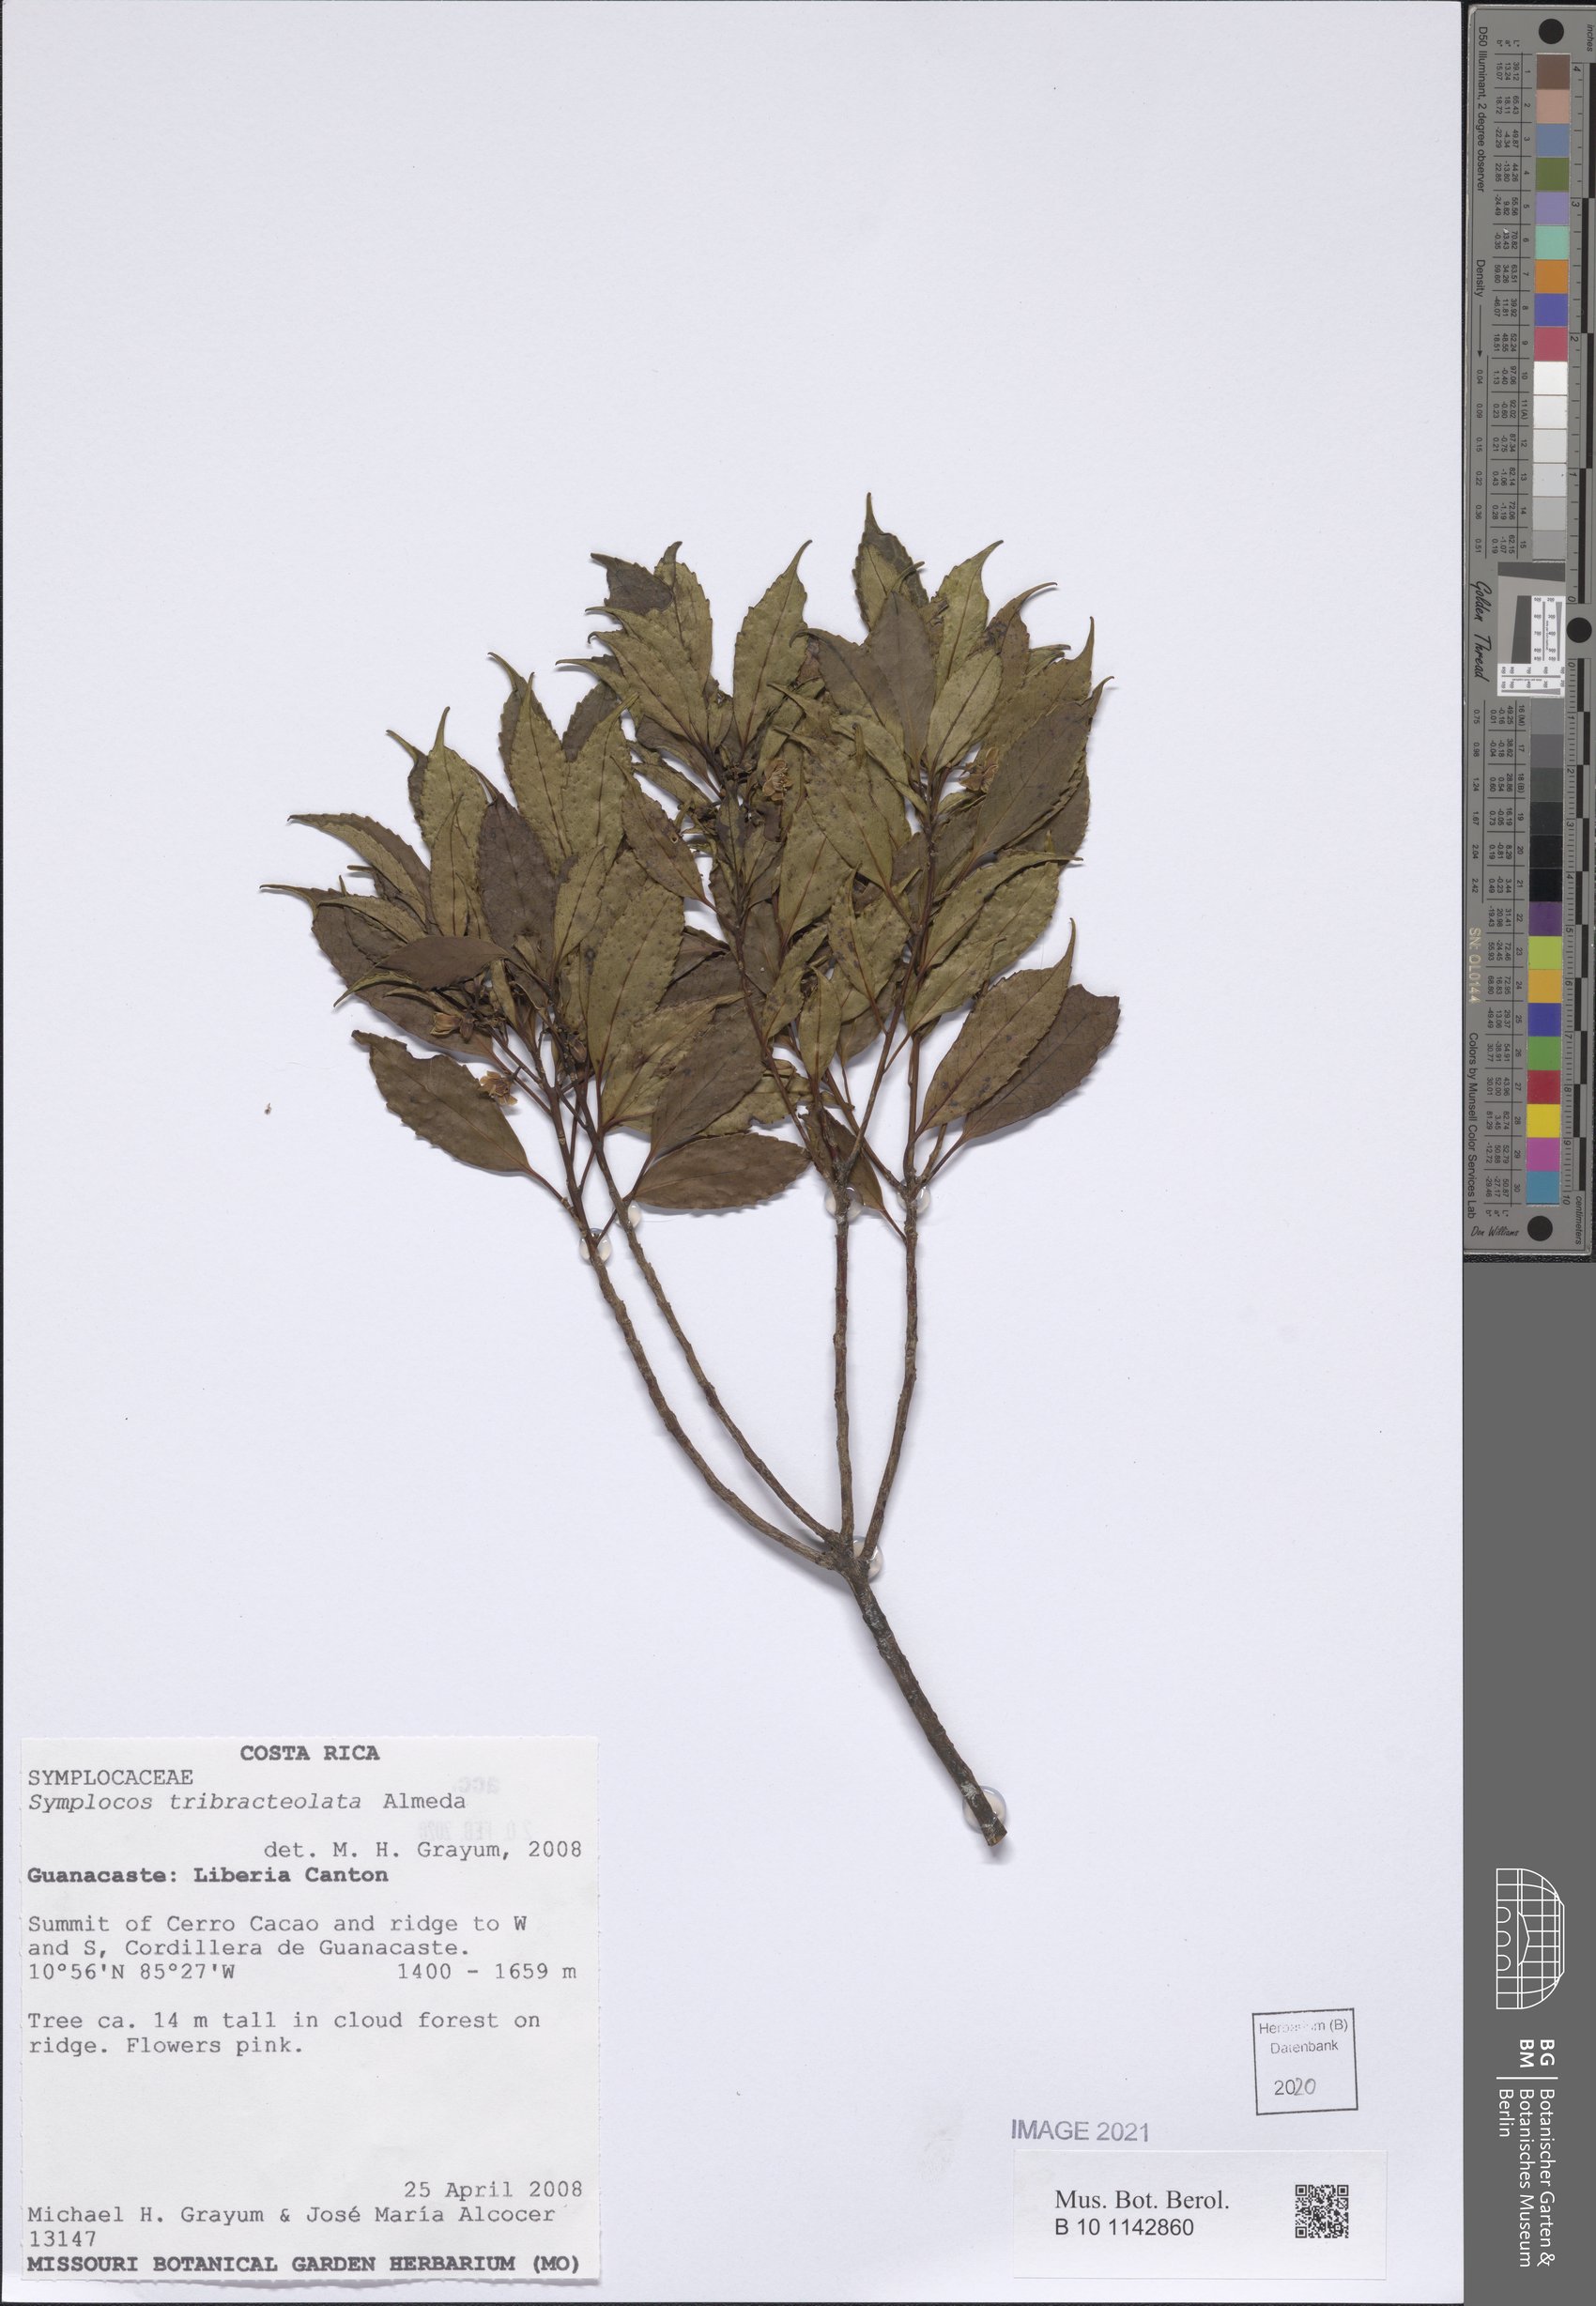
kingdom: Plantae
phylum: Tracheophyta
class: Magnoliopsida
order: Ericales
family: Symplocaceae
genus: Symplocos
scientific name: Symplocos tribracteolata
